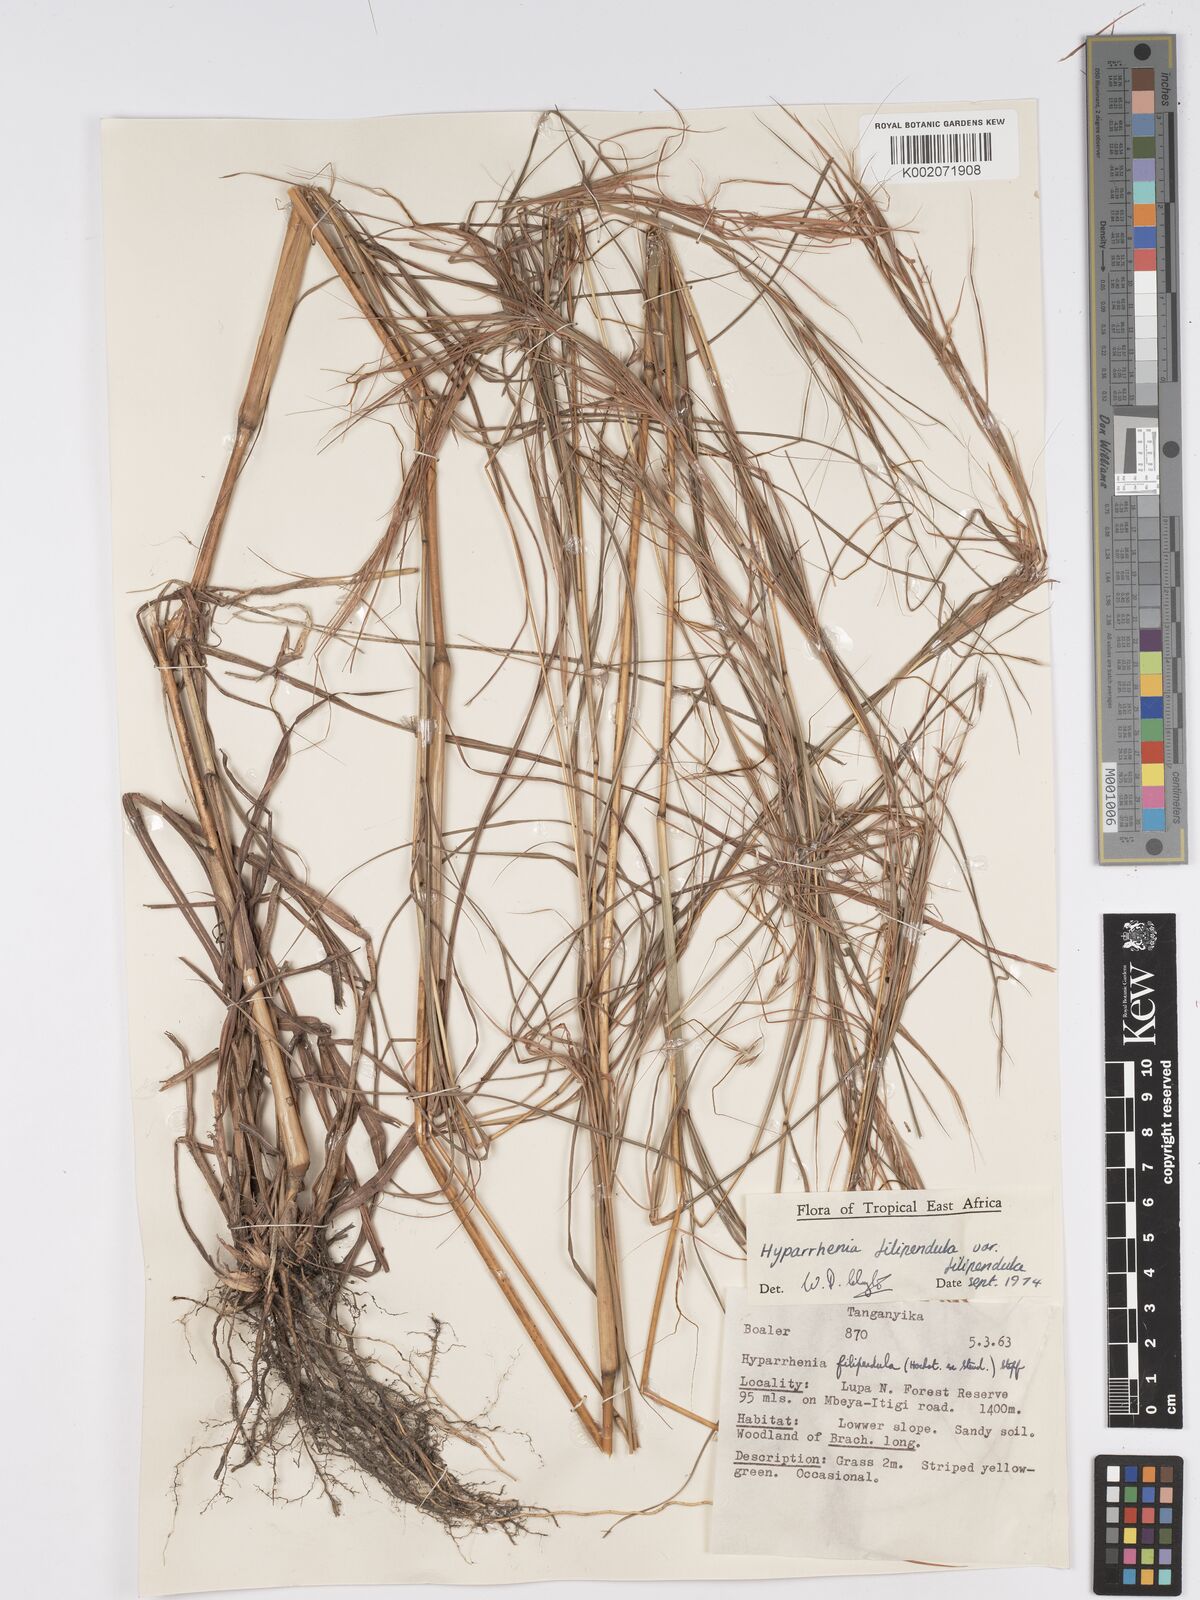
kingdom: Plantae
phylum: Tracheophyta
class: Liliopsida
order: Poales
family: Poaceae
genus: Hyparrhenia
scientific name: Hyparrhenia filipendula
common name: Tambookie grass
